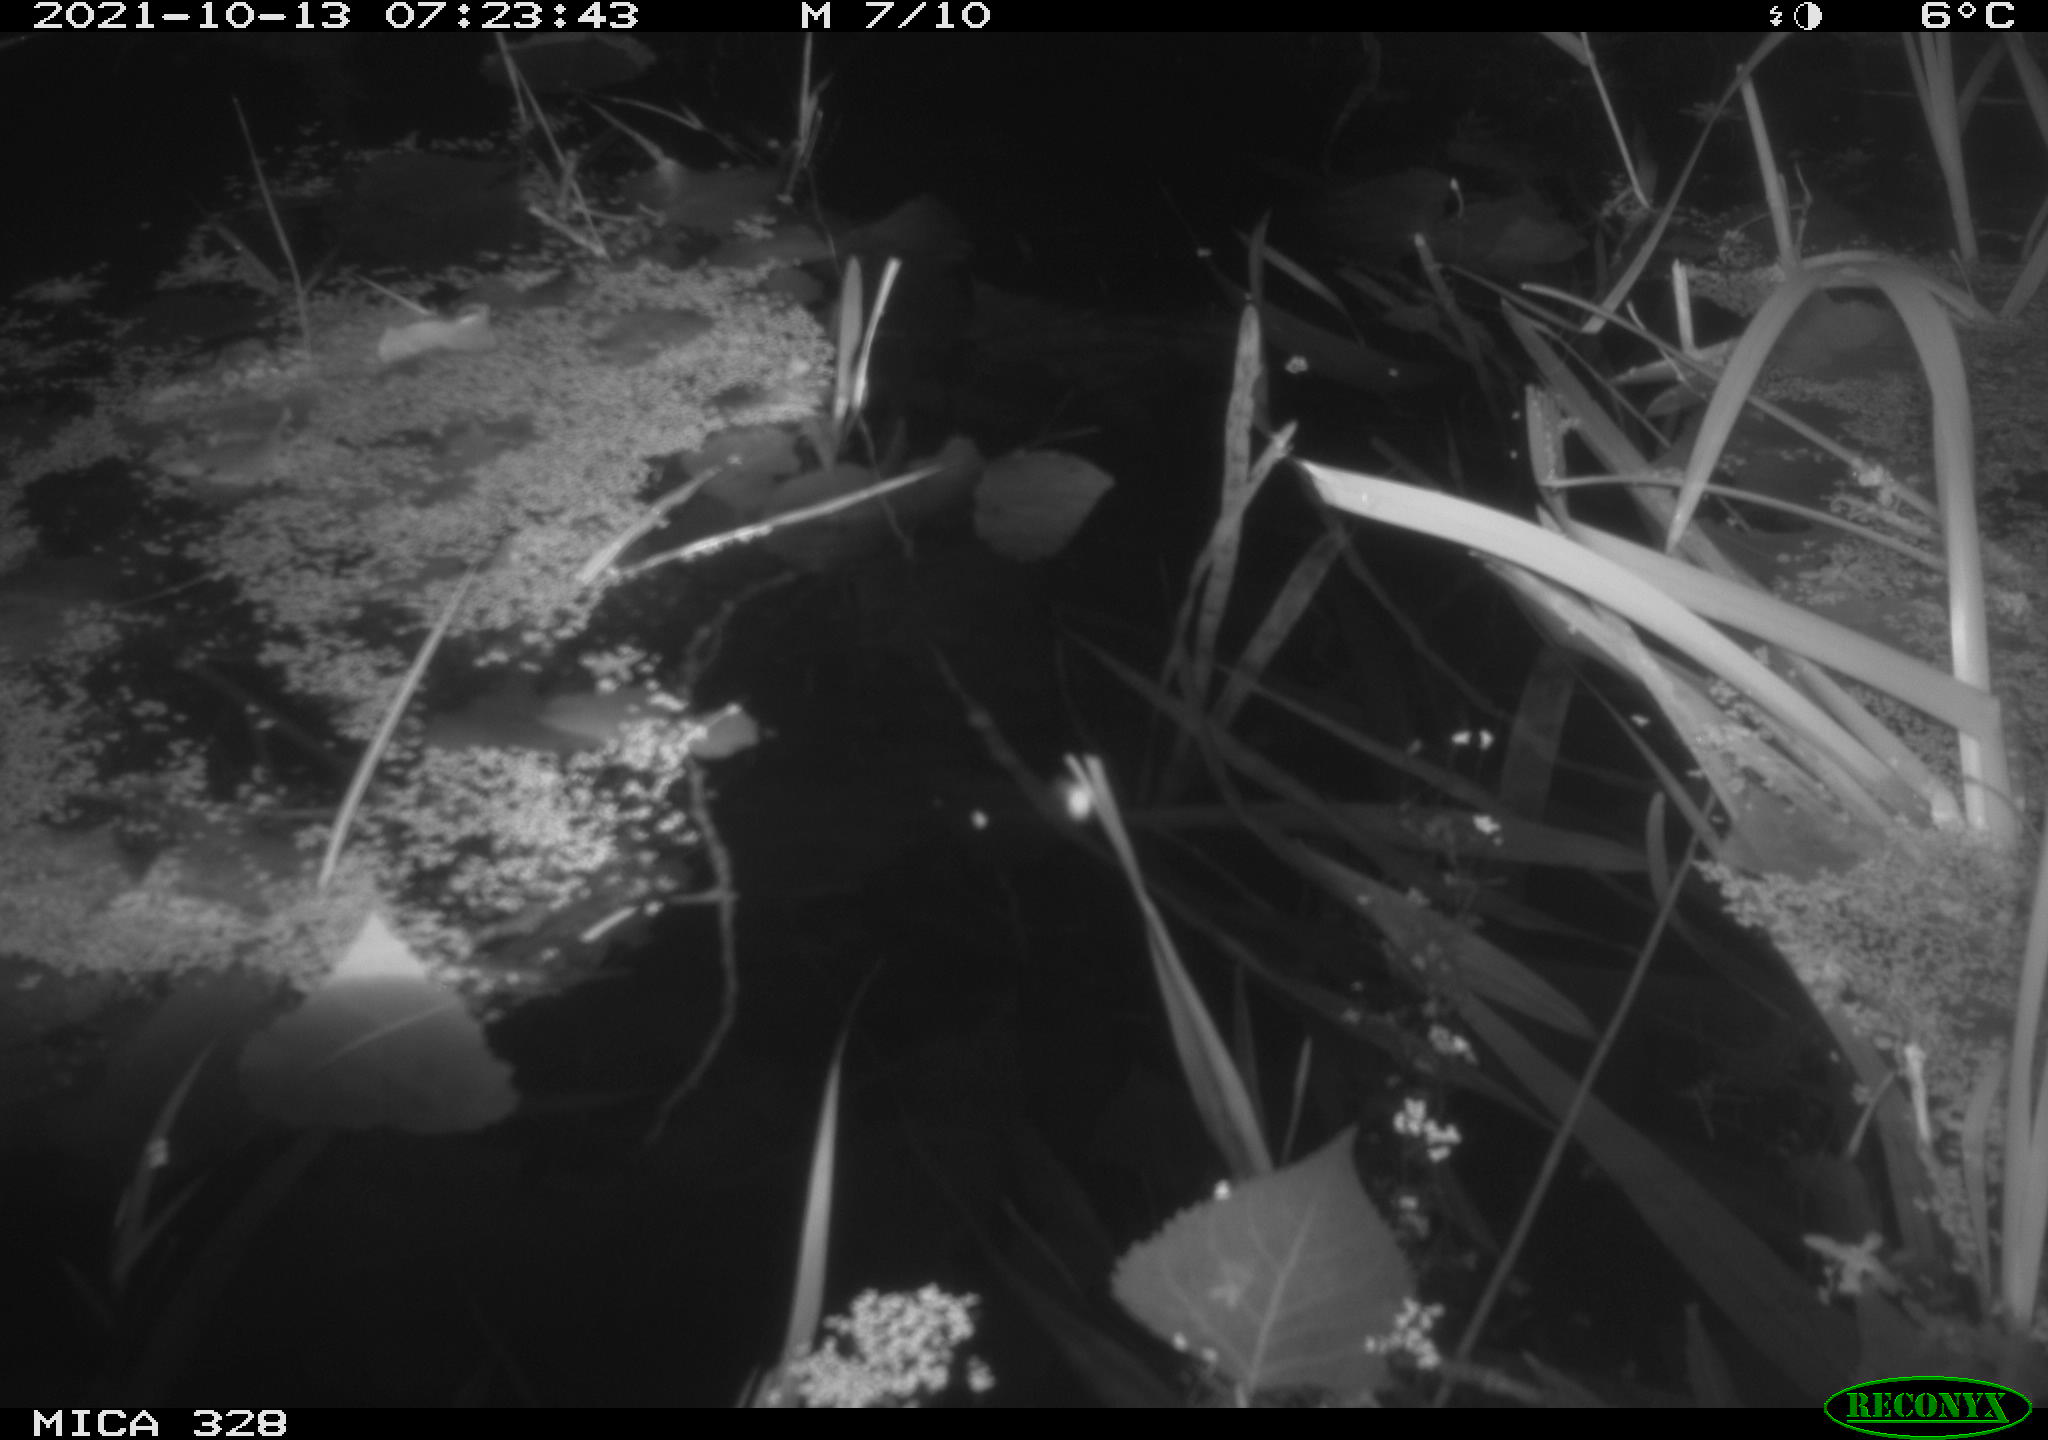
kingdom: Animalia
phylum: Chordata
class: Mammalia
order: Rodentia
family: Cricetidae
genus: Ondatra
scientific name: Ondatra zibethicus
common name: Muskrat
